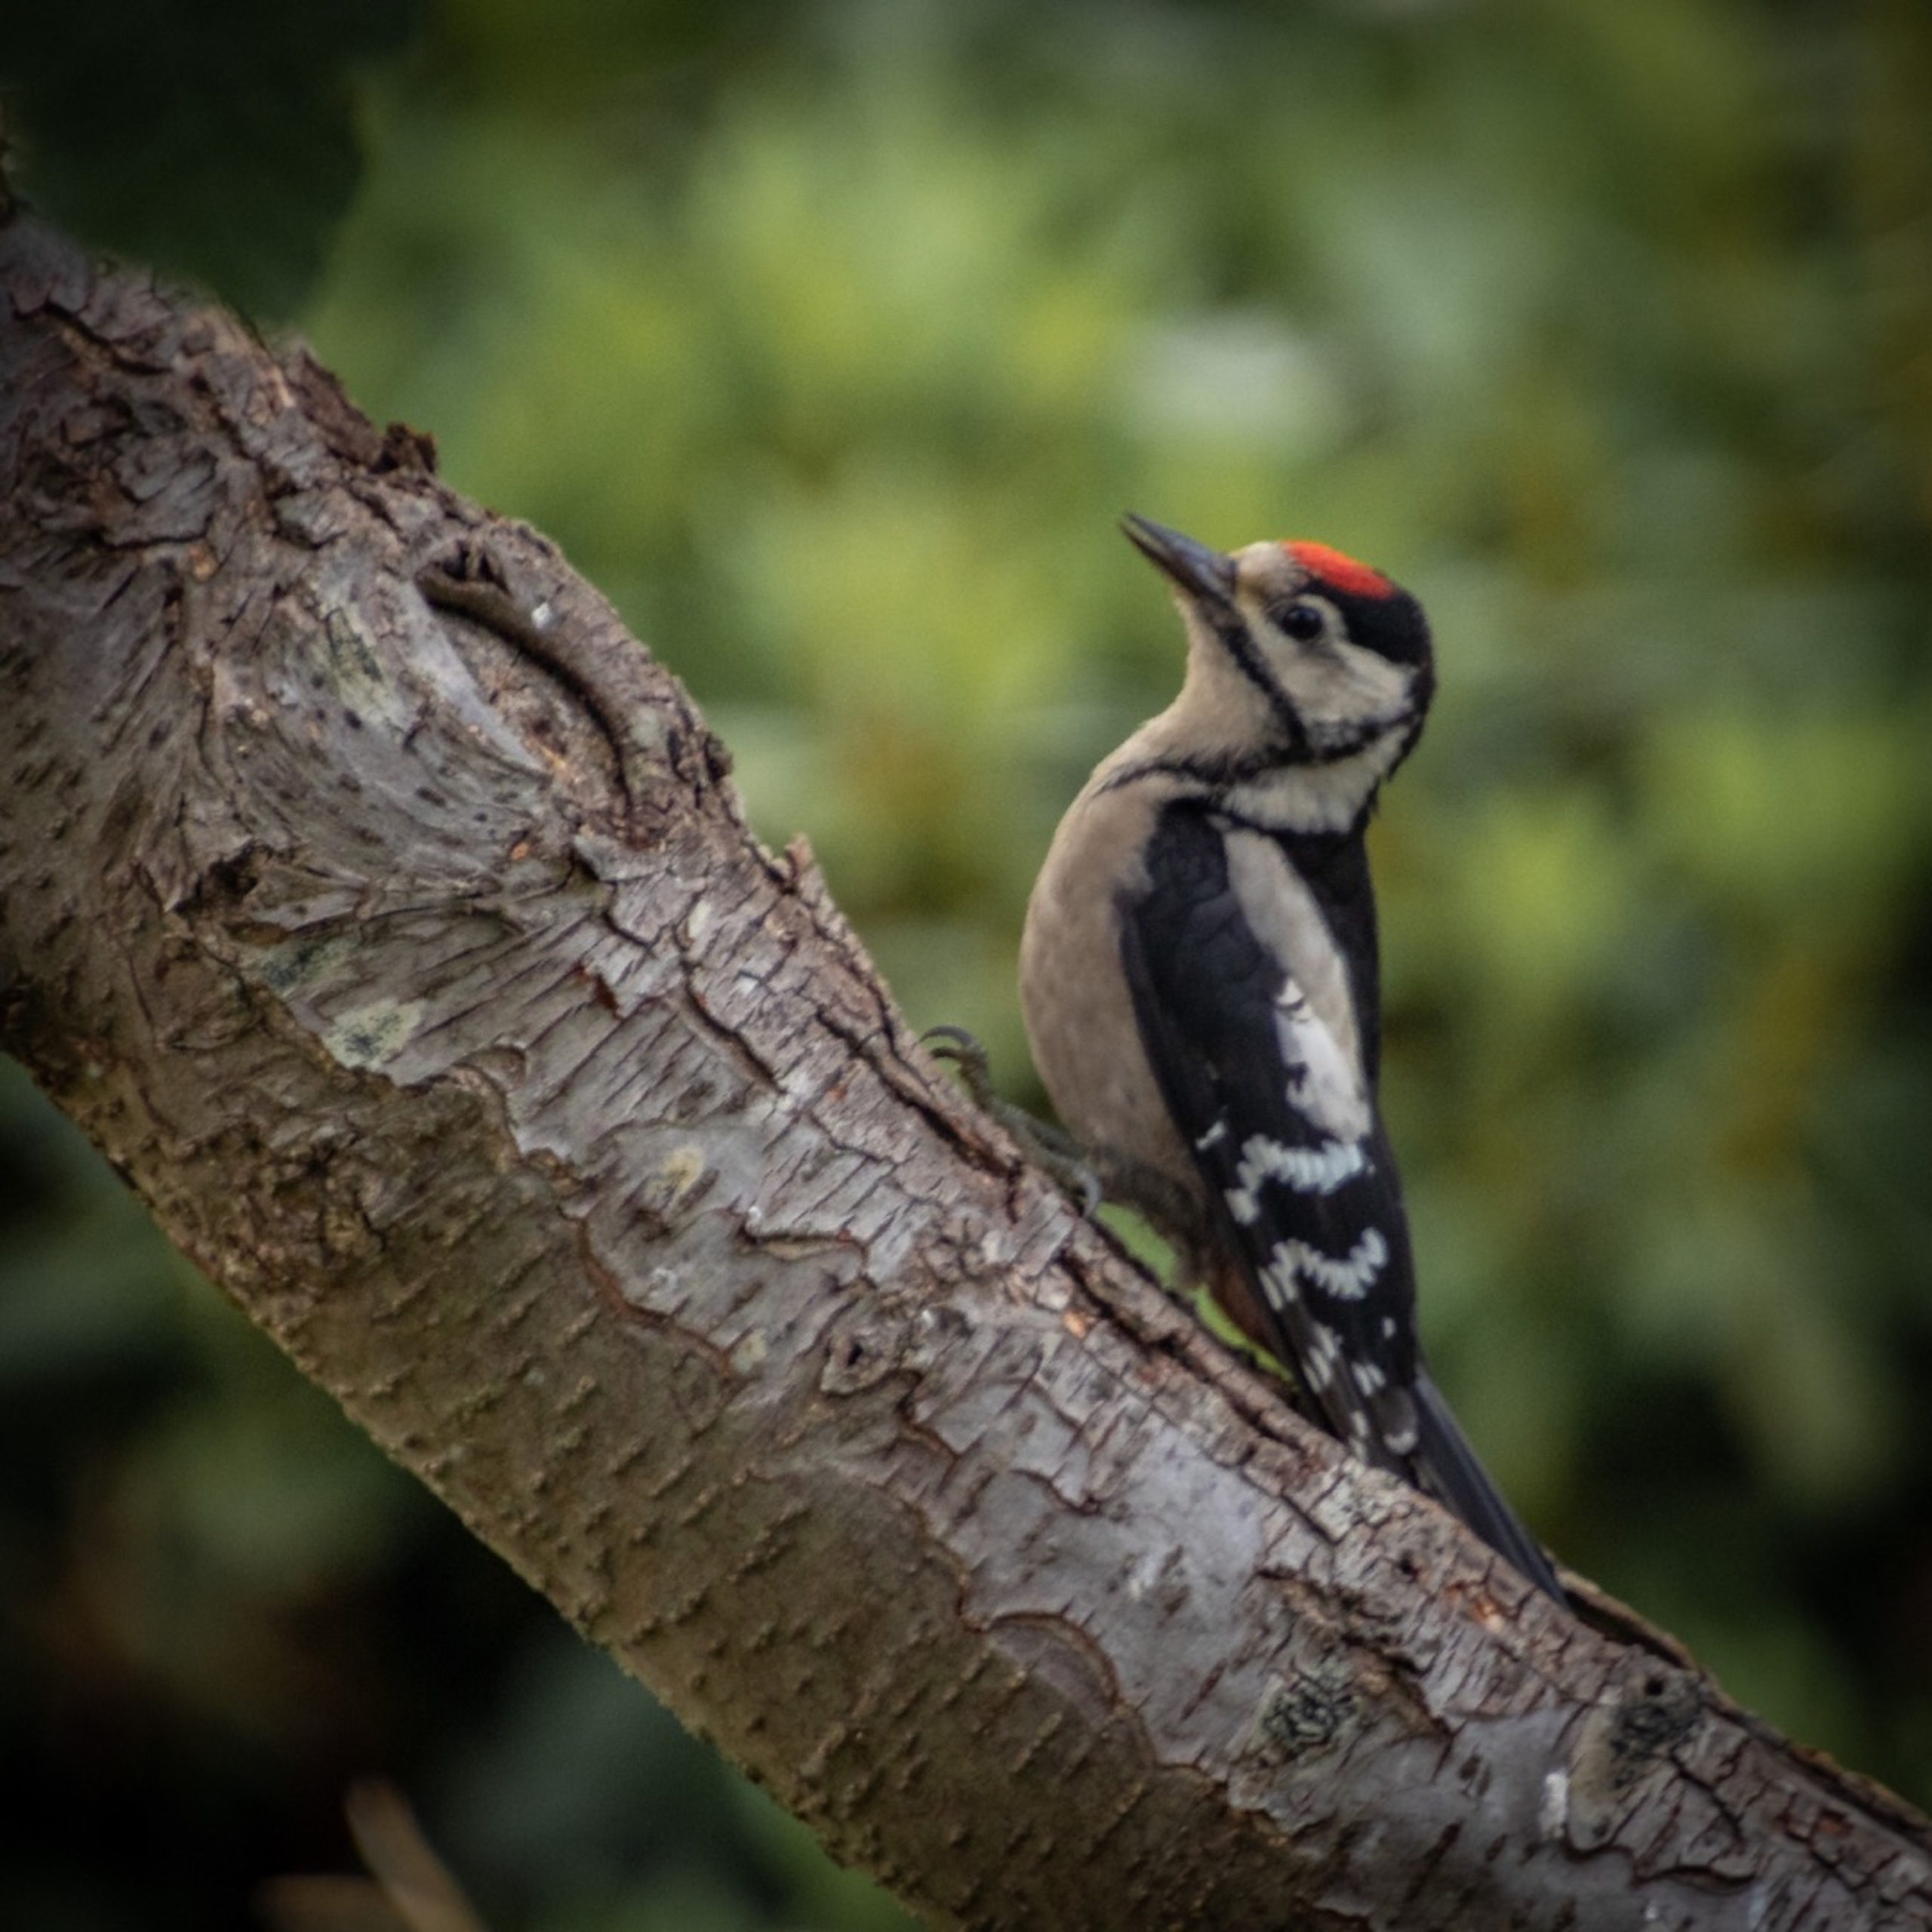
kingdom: Animalia
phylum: Chordata
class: Aves
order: Piciformes
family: Picidae
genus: Dendrocopos
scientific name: Dendrocopos major
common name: Stor flagspætte
